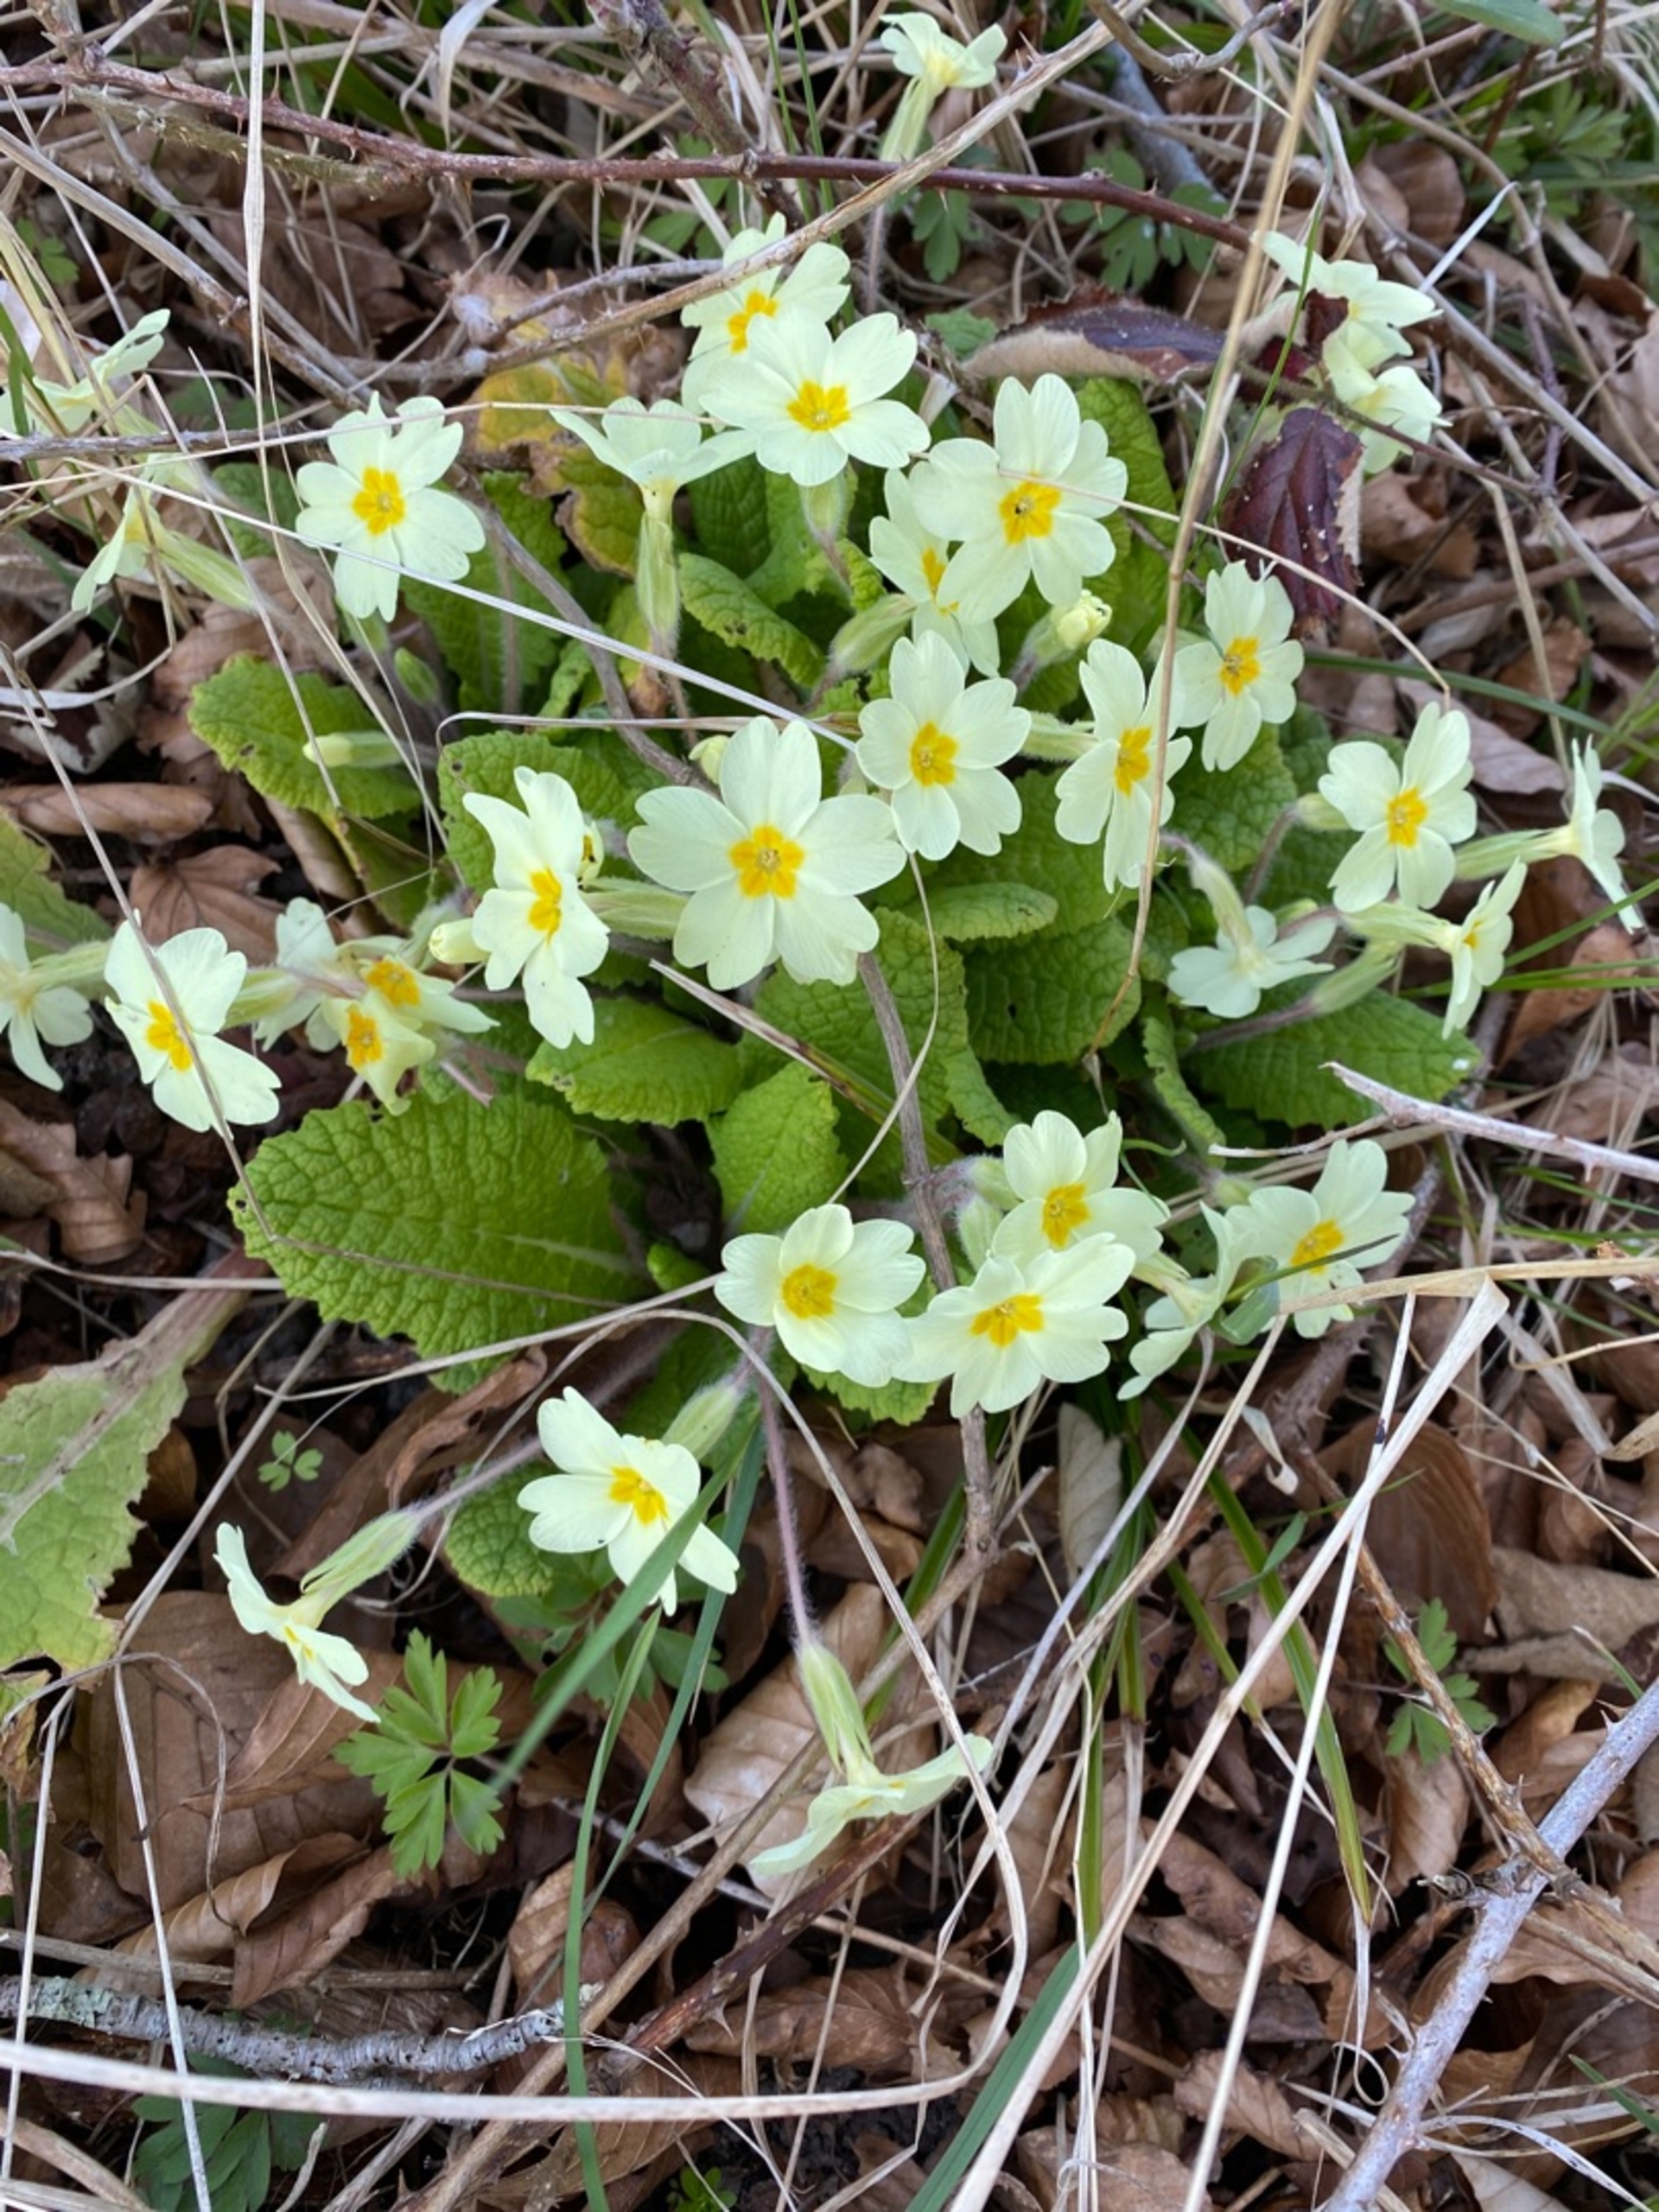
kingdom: Plantae
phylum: Tracheophyta
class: Magnoliopsida
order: Ericales
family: Primulaceae
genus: Primula
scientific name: Primula vulgaris
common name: Storblomstret kodriver
